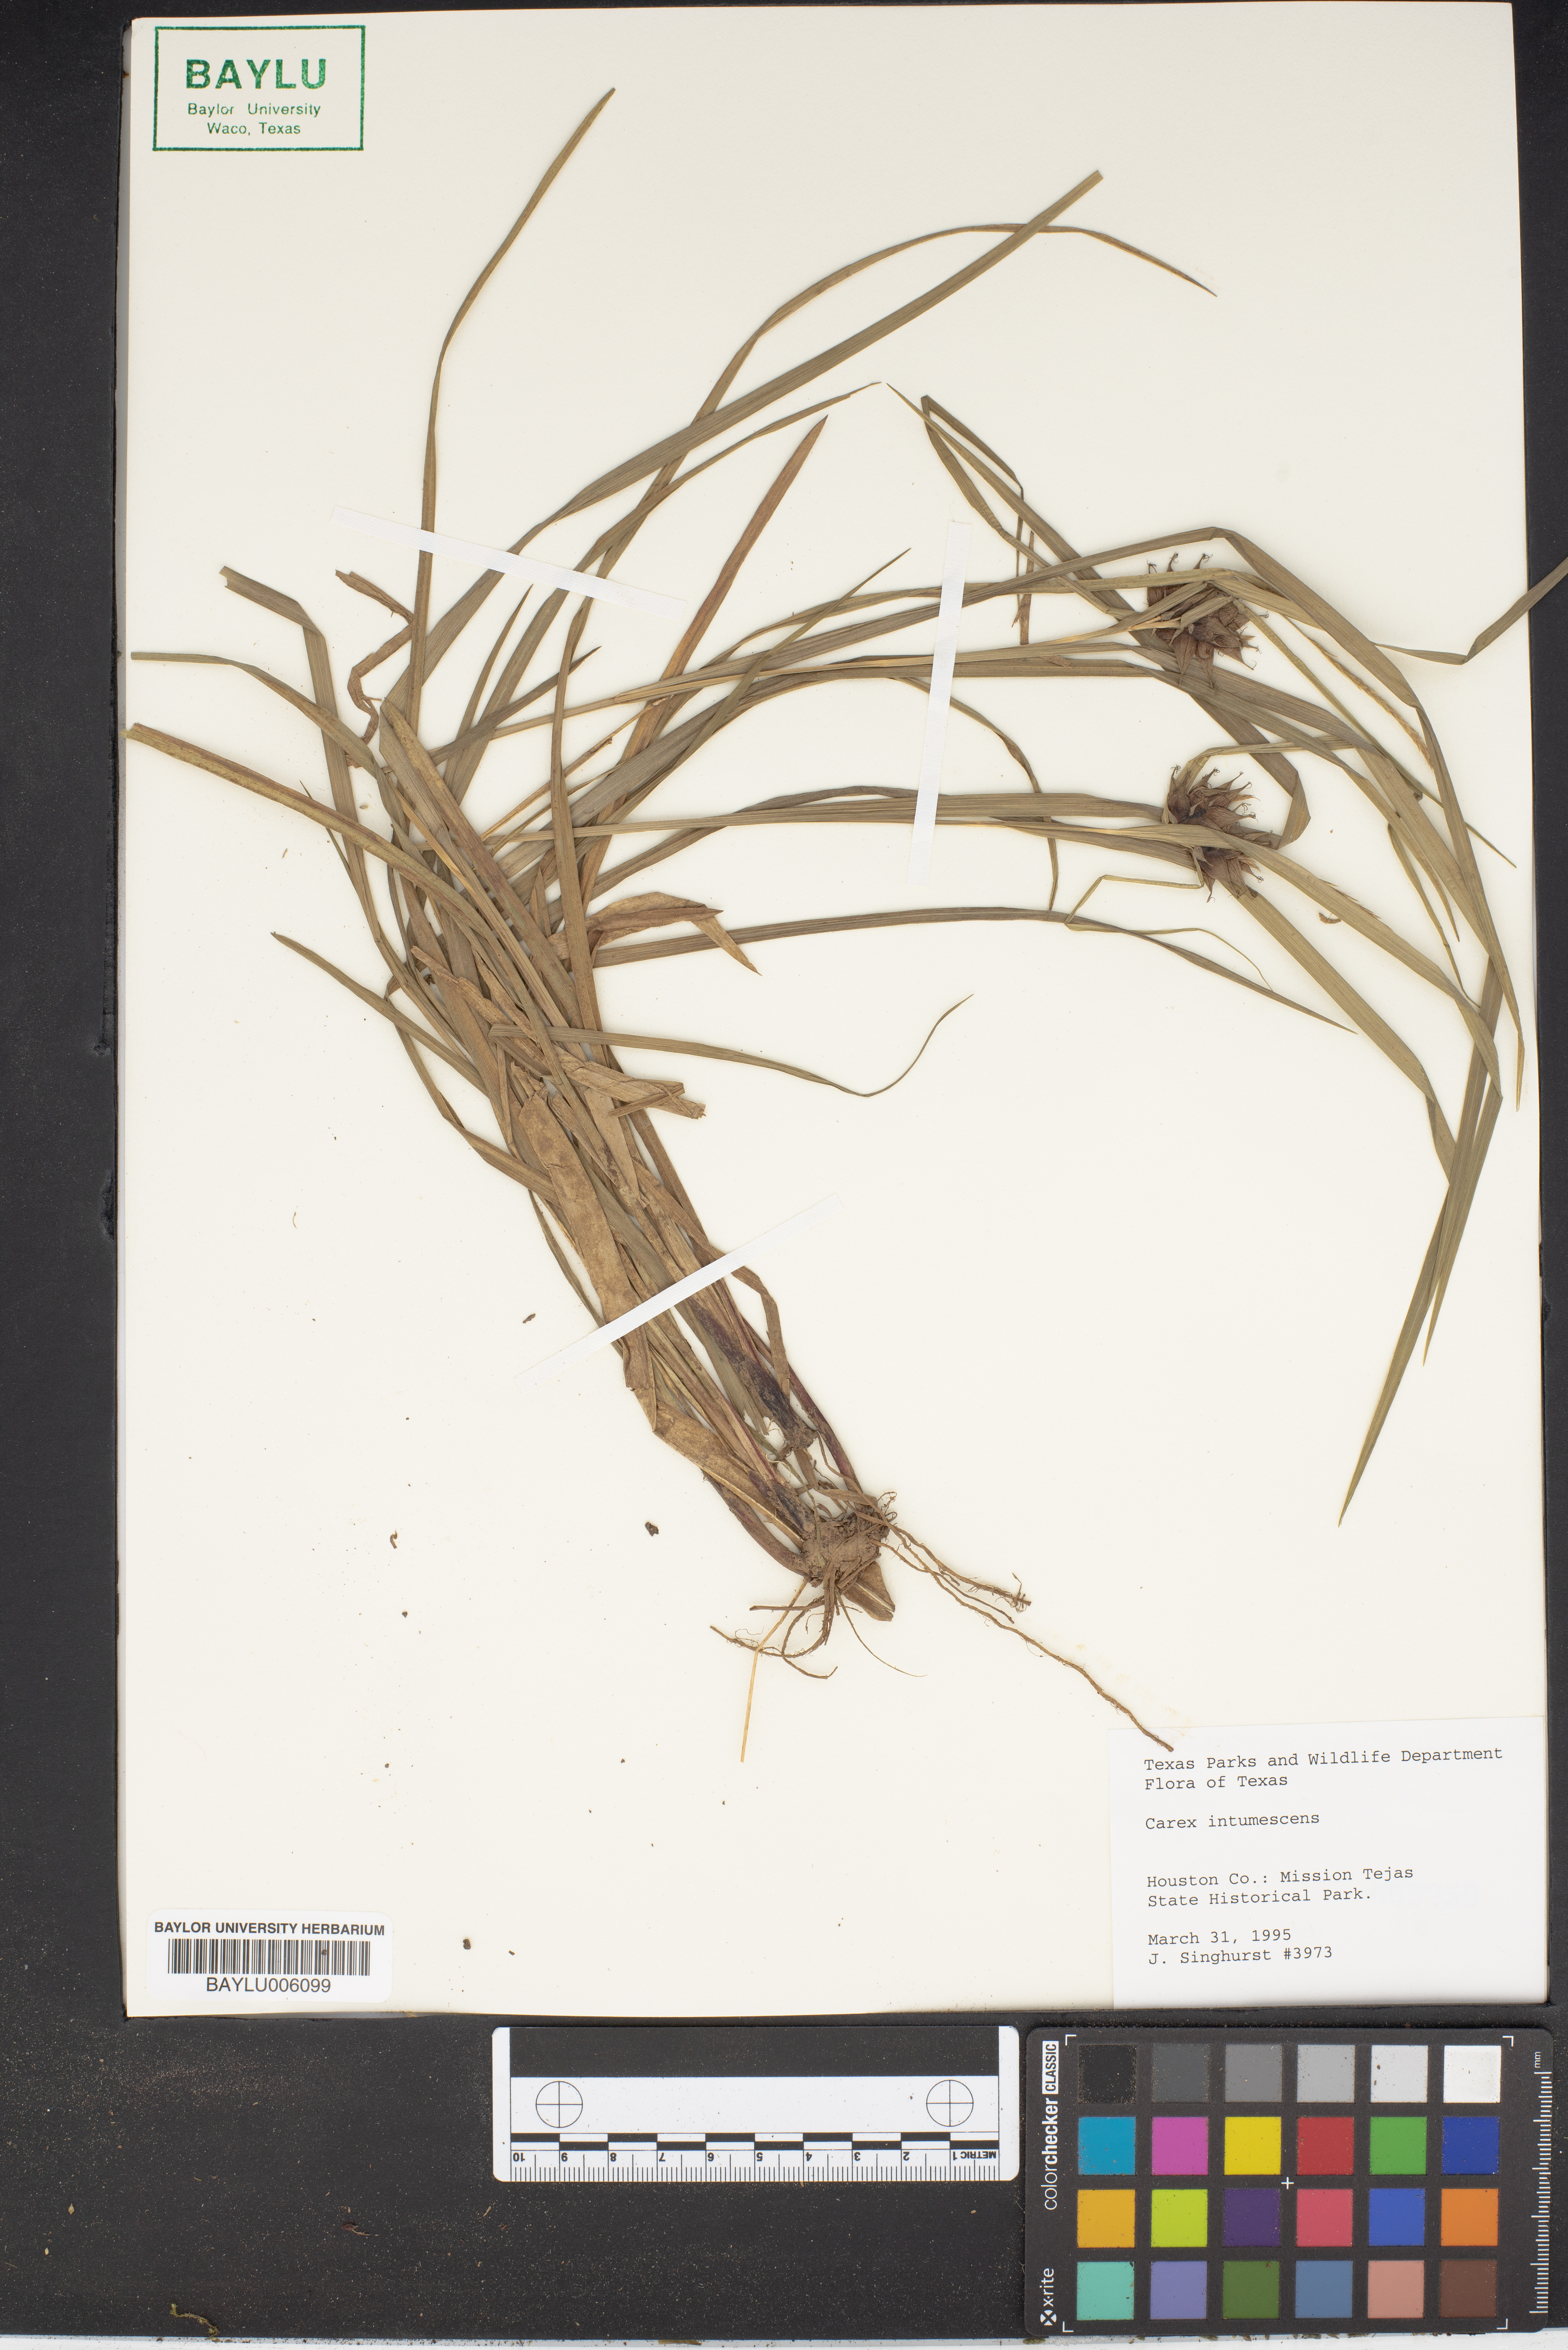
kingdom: Plantae
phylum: Tracheophyta
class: Liliopsida
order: Poales
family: Cyperaceae
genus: Carex
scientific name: Carex intumescens
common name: Greater bladder sedge
